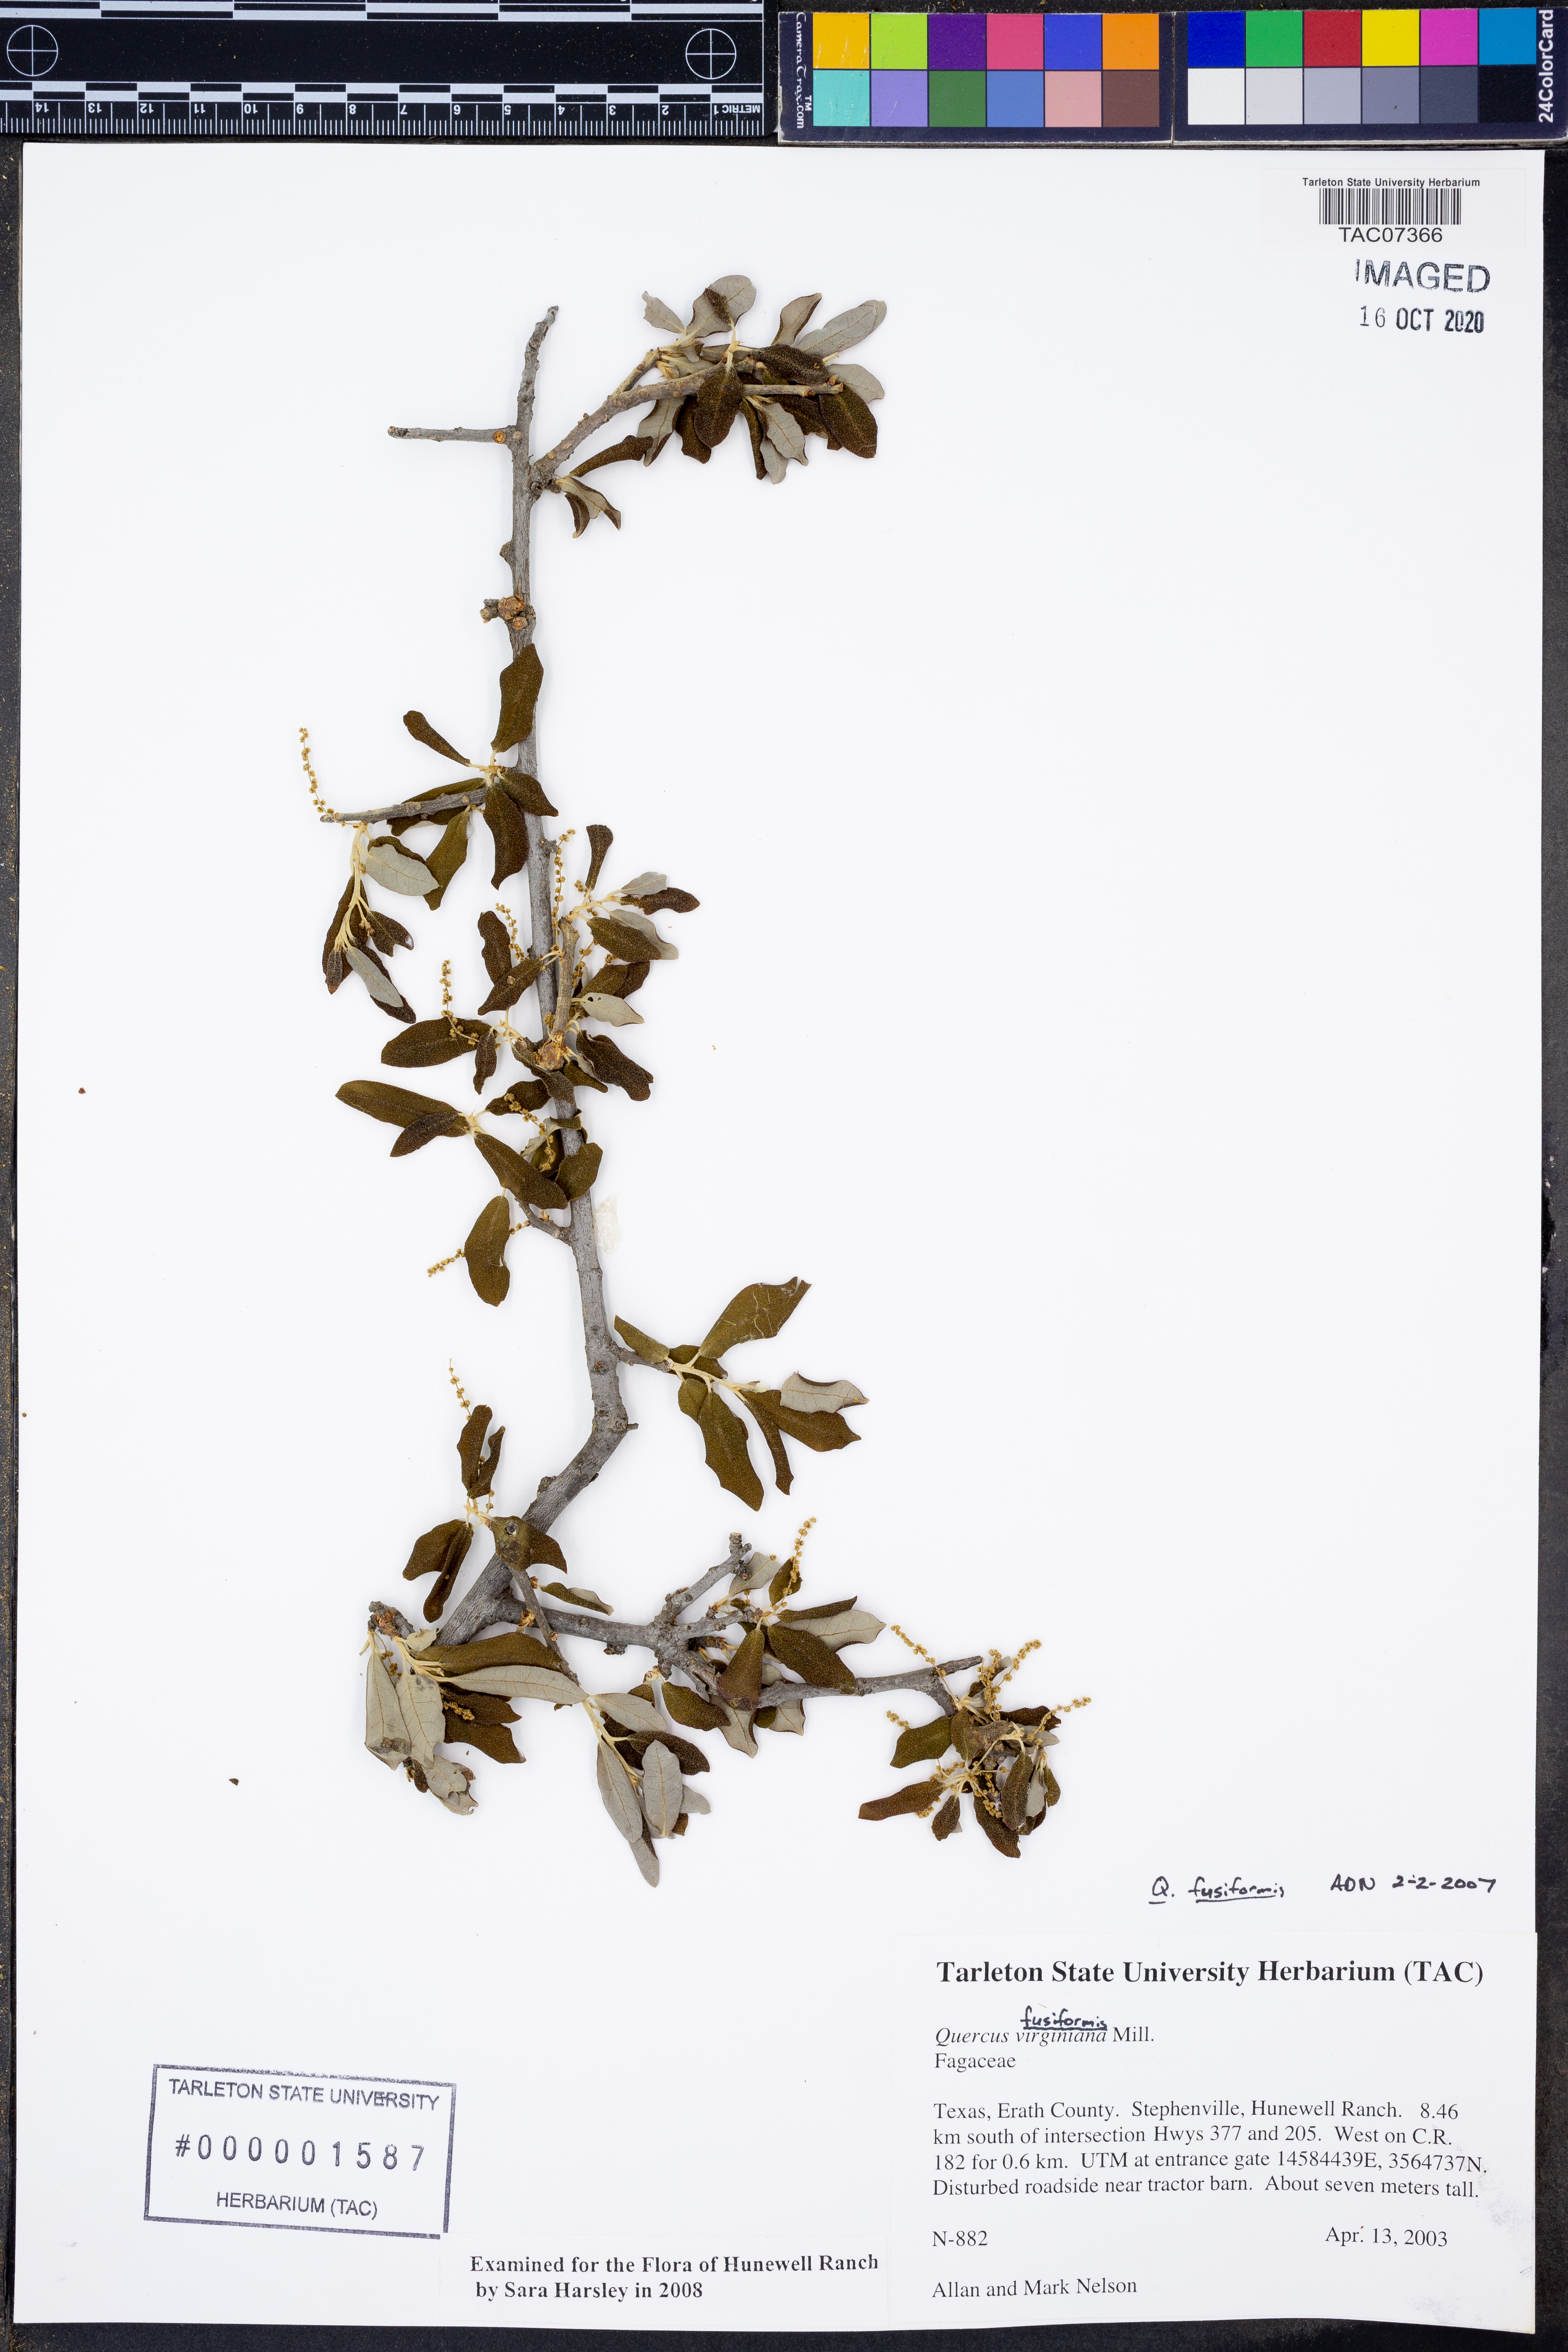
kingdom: Plantae
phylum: Tracheophyta
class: Magnoliopsida
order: Fagales
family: Fagaceae
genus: Quercus
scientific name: Quercus fusiformis
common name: Texas live oak
